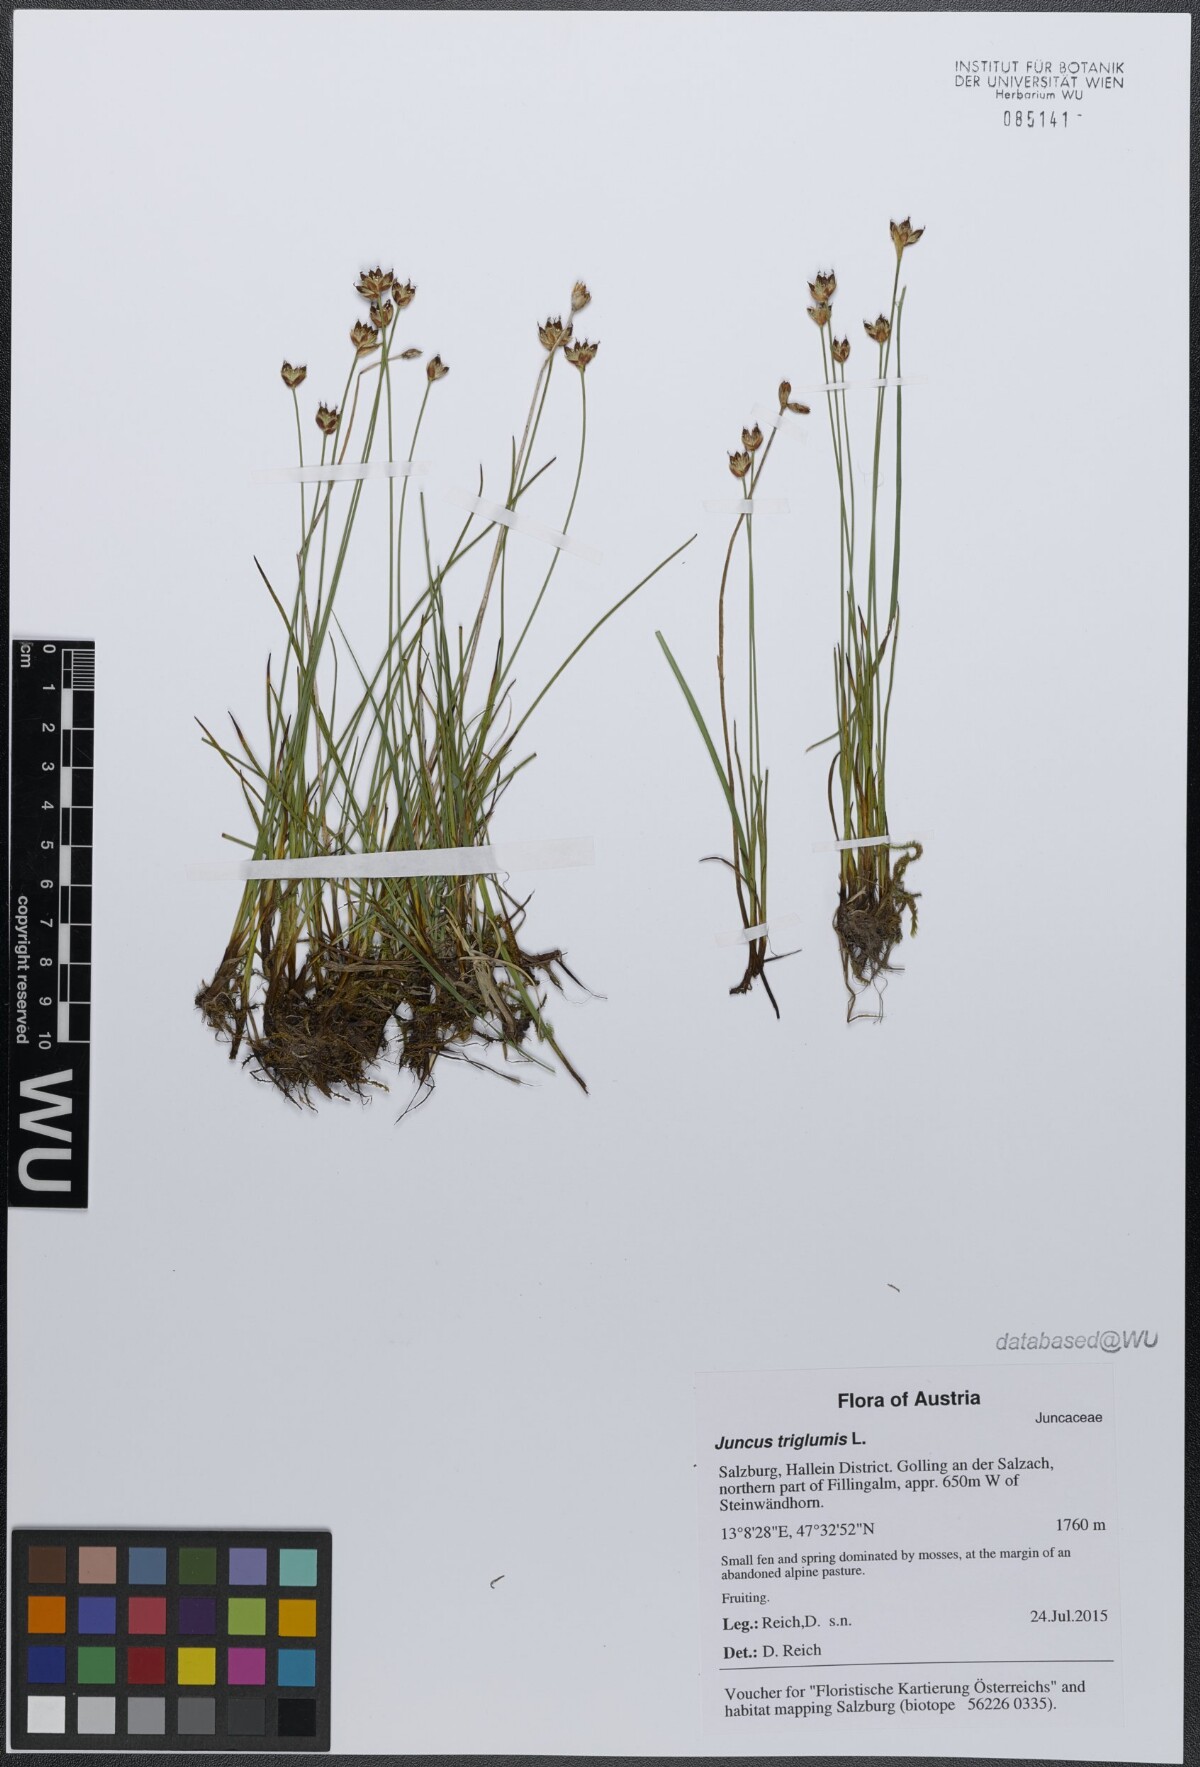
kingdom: Plantae
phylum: Tracheophyta
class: Liliopsida
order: Poales
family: Juncaceae
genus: Juncus
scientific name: Juncus triglumis
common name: Three-flowered rush
